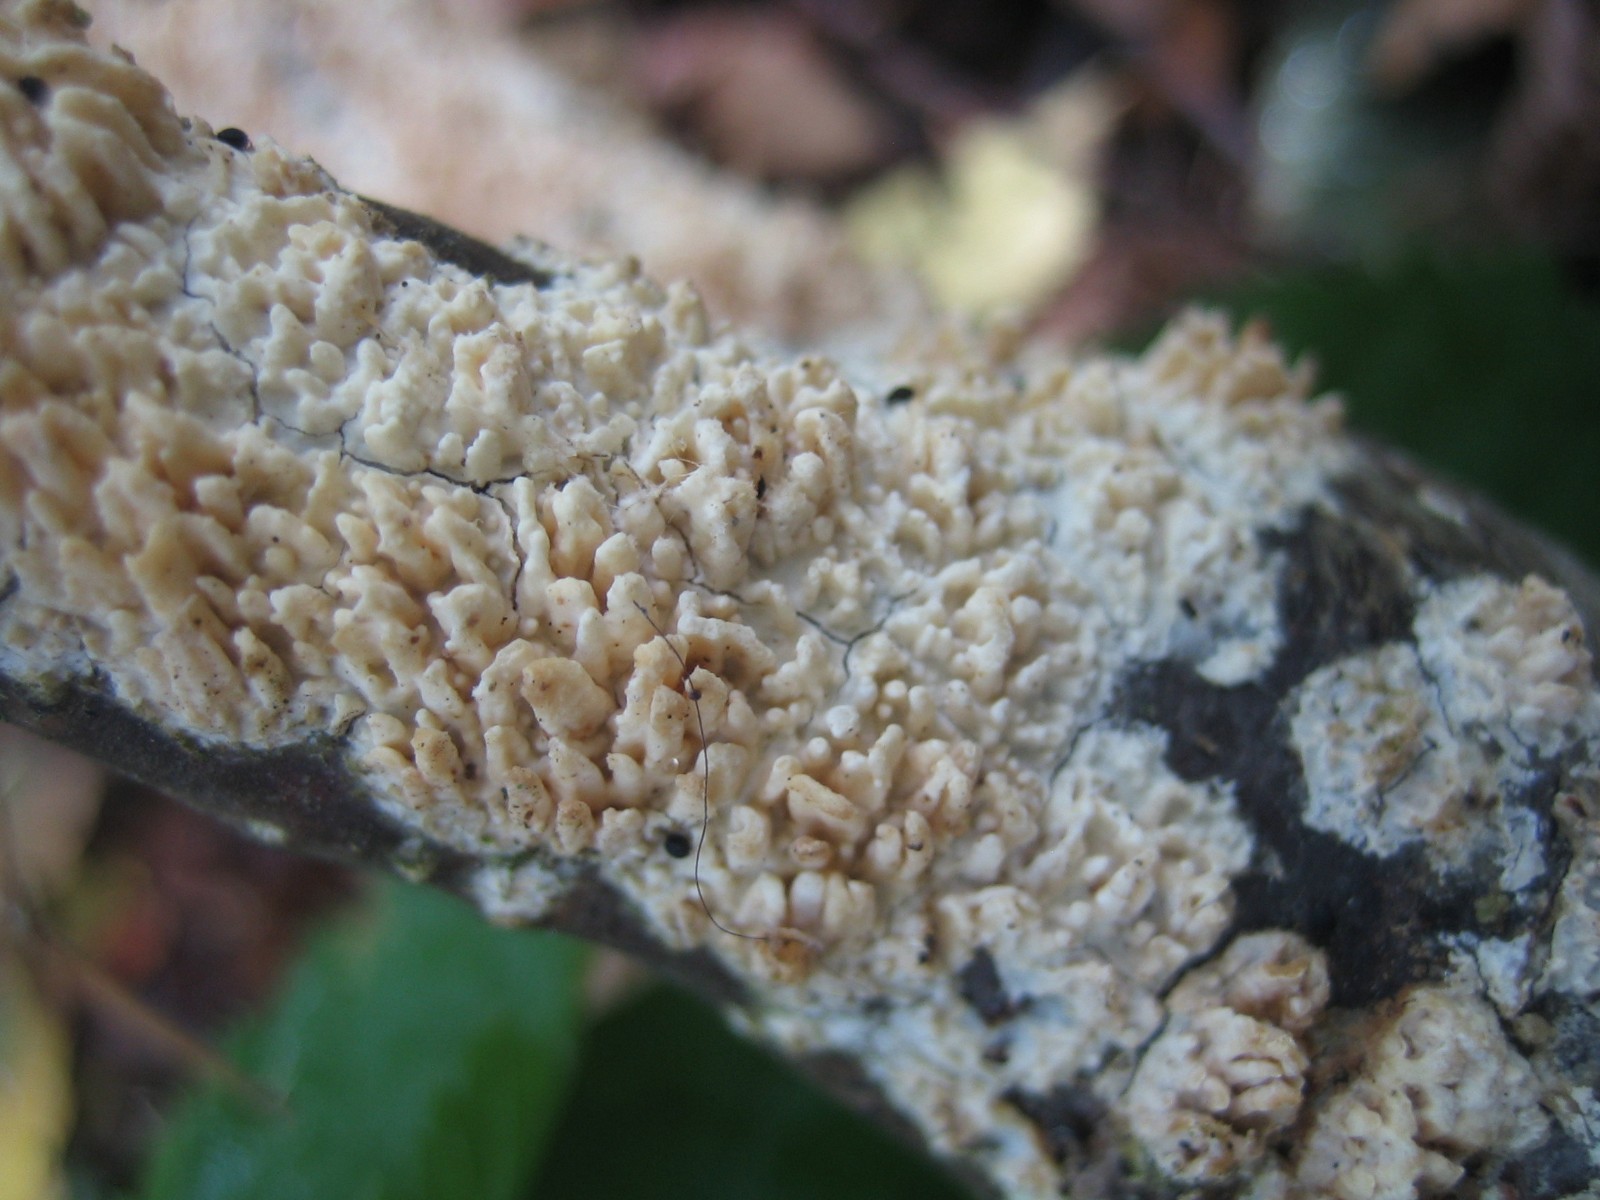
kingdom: Fungi
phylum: Basidiomycota
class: Agaricomycetes
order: Hymenochaetales
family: Schizoporaceae
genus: Xylodon
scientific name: Xylodon radula
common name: grovtandet kalkskind
